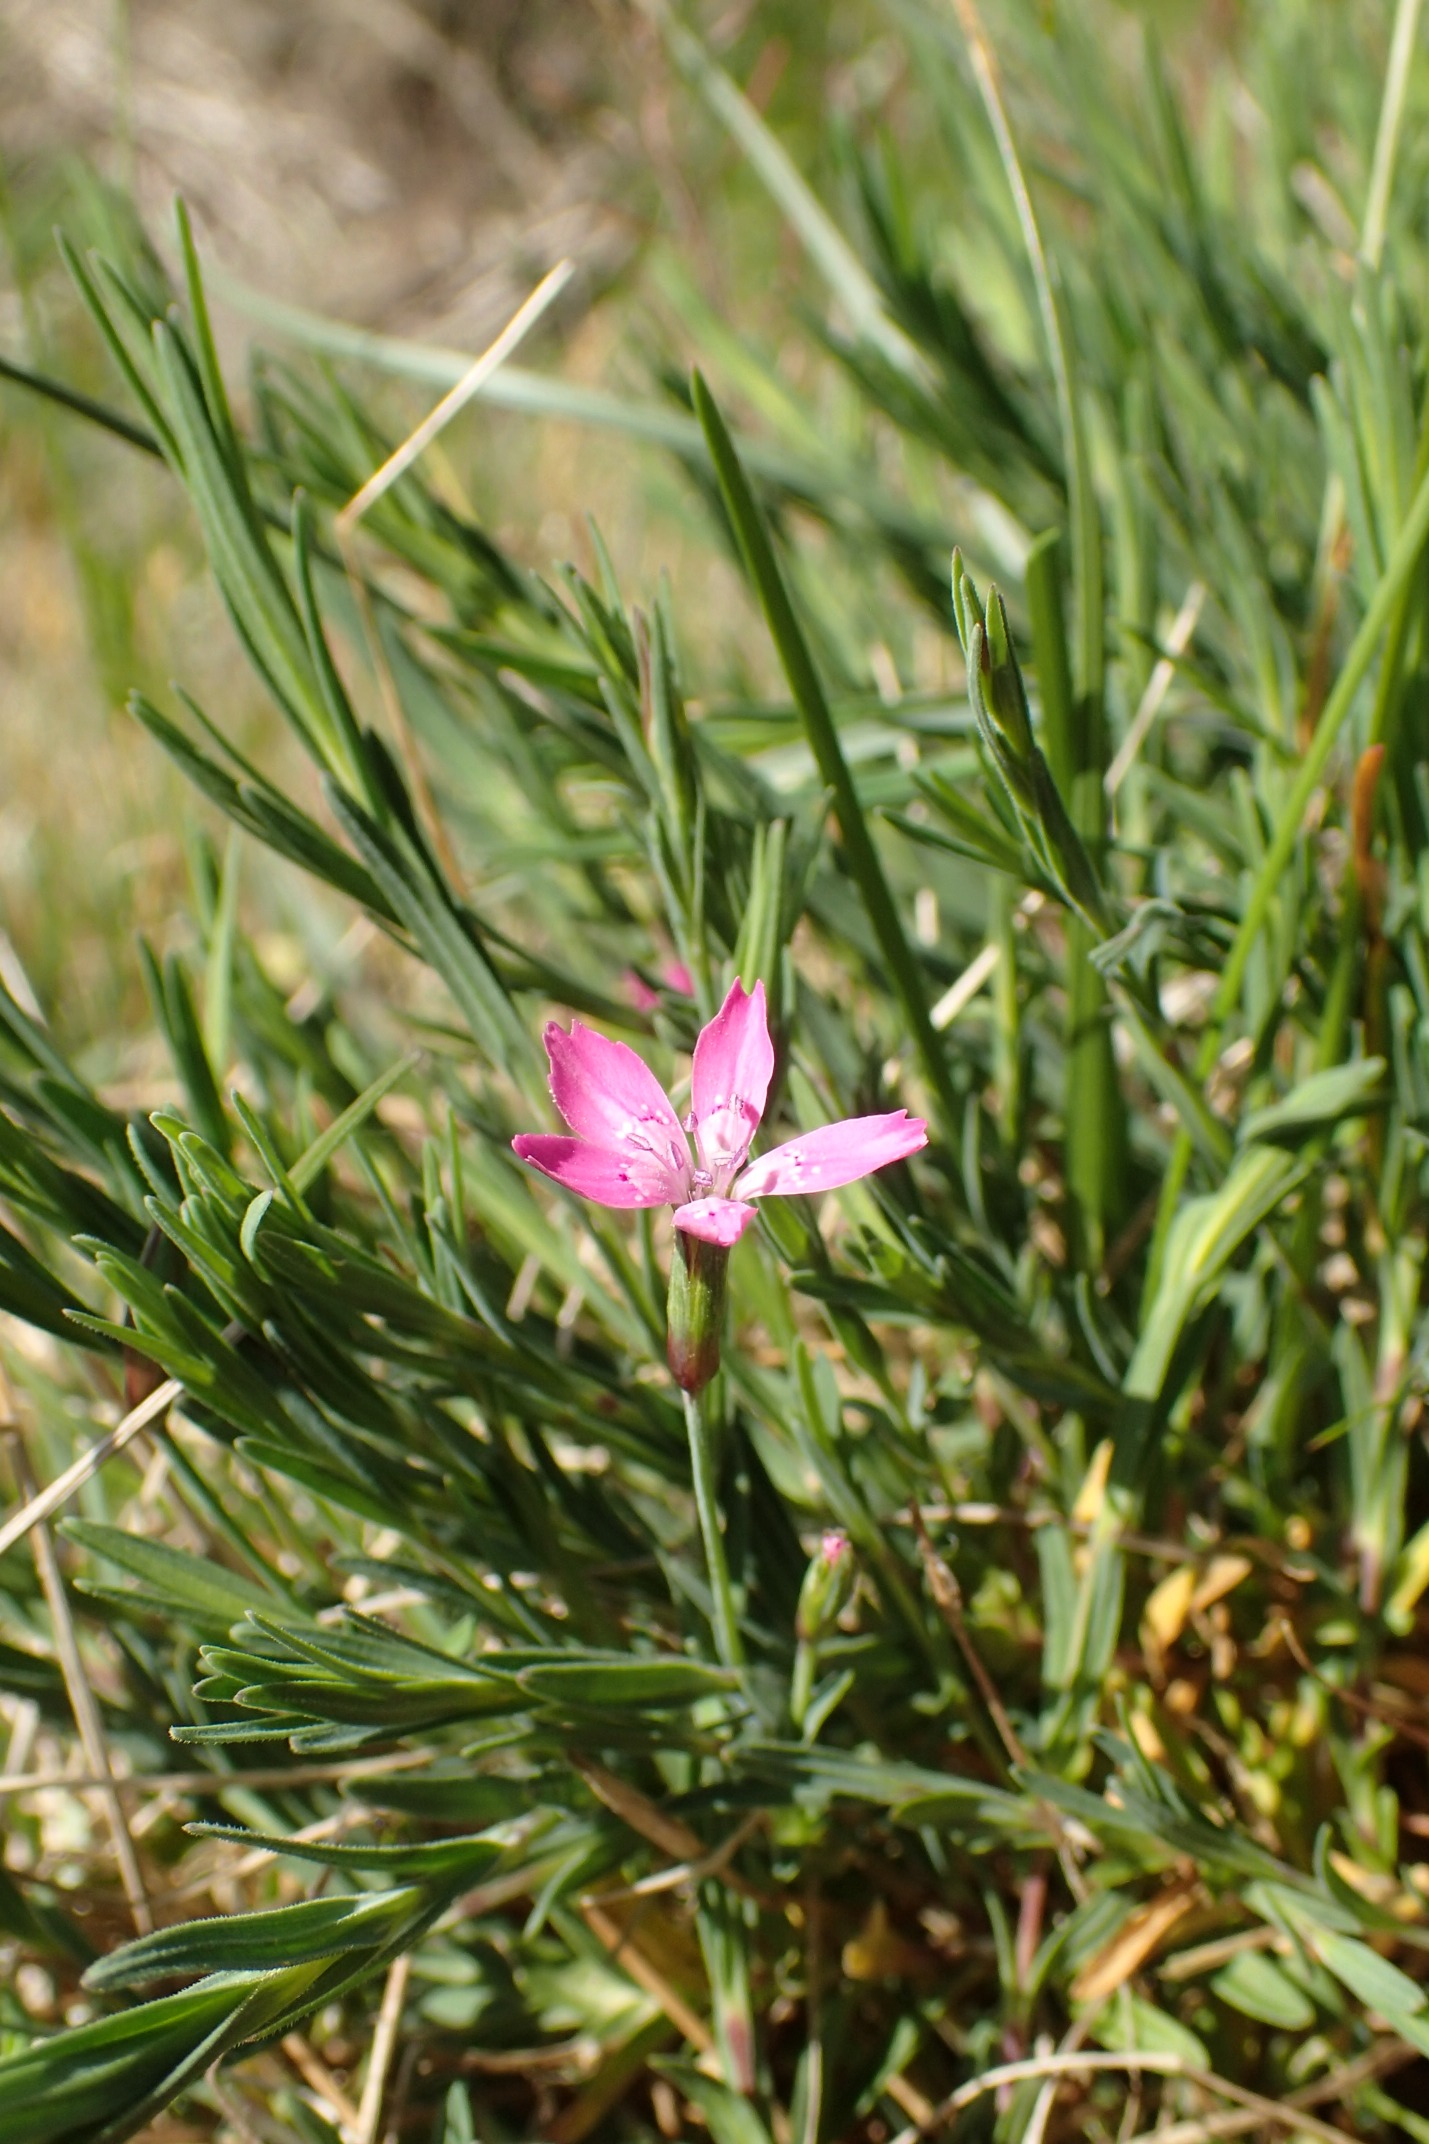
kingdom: Plantae
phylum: Tracheophyta
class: Magnoliopsida
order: Caryophyllales
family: Caryophyllaceae
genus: Dianthus
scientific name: Dianthus deltoides
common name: Bakke-nellike
